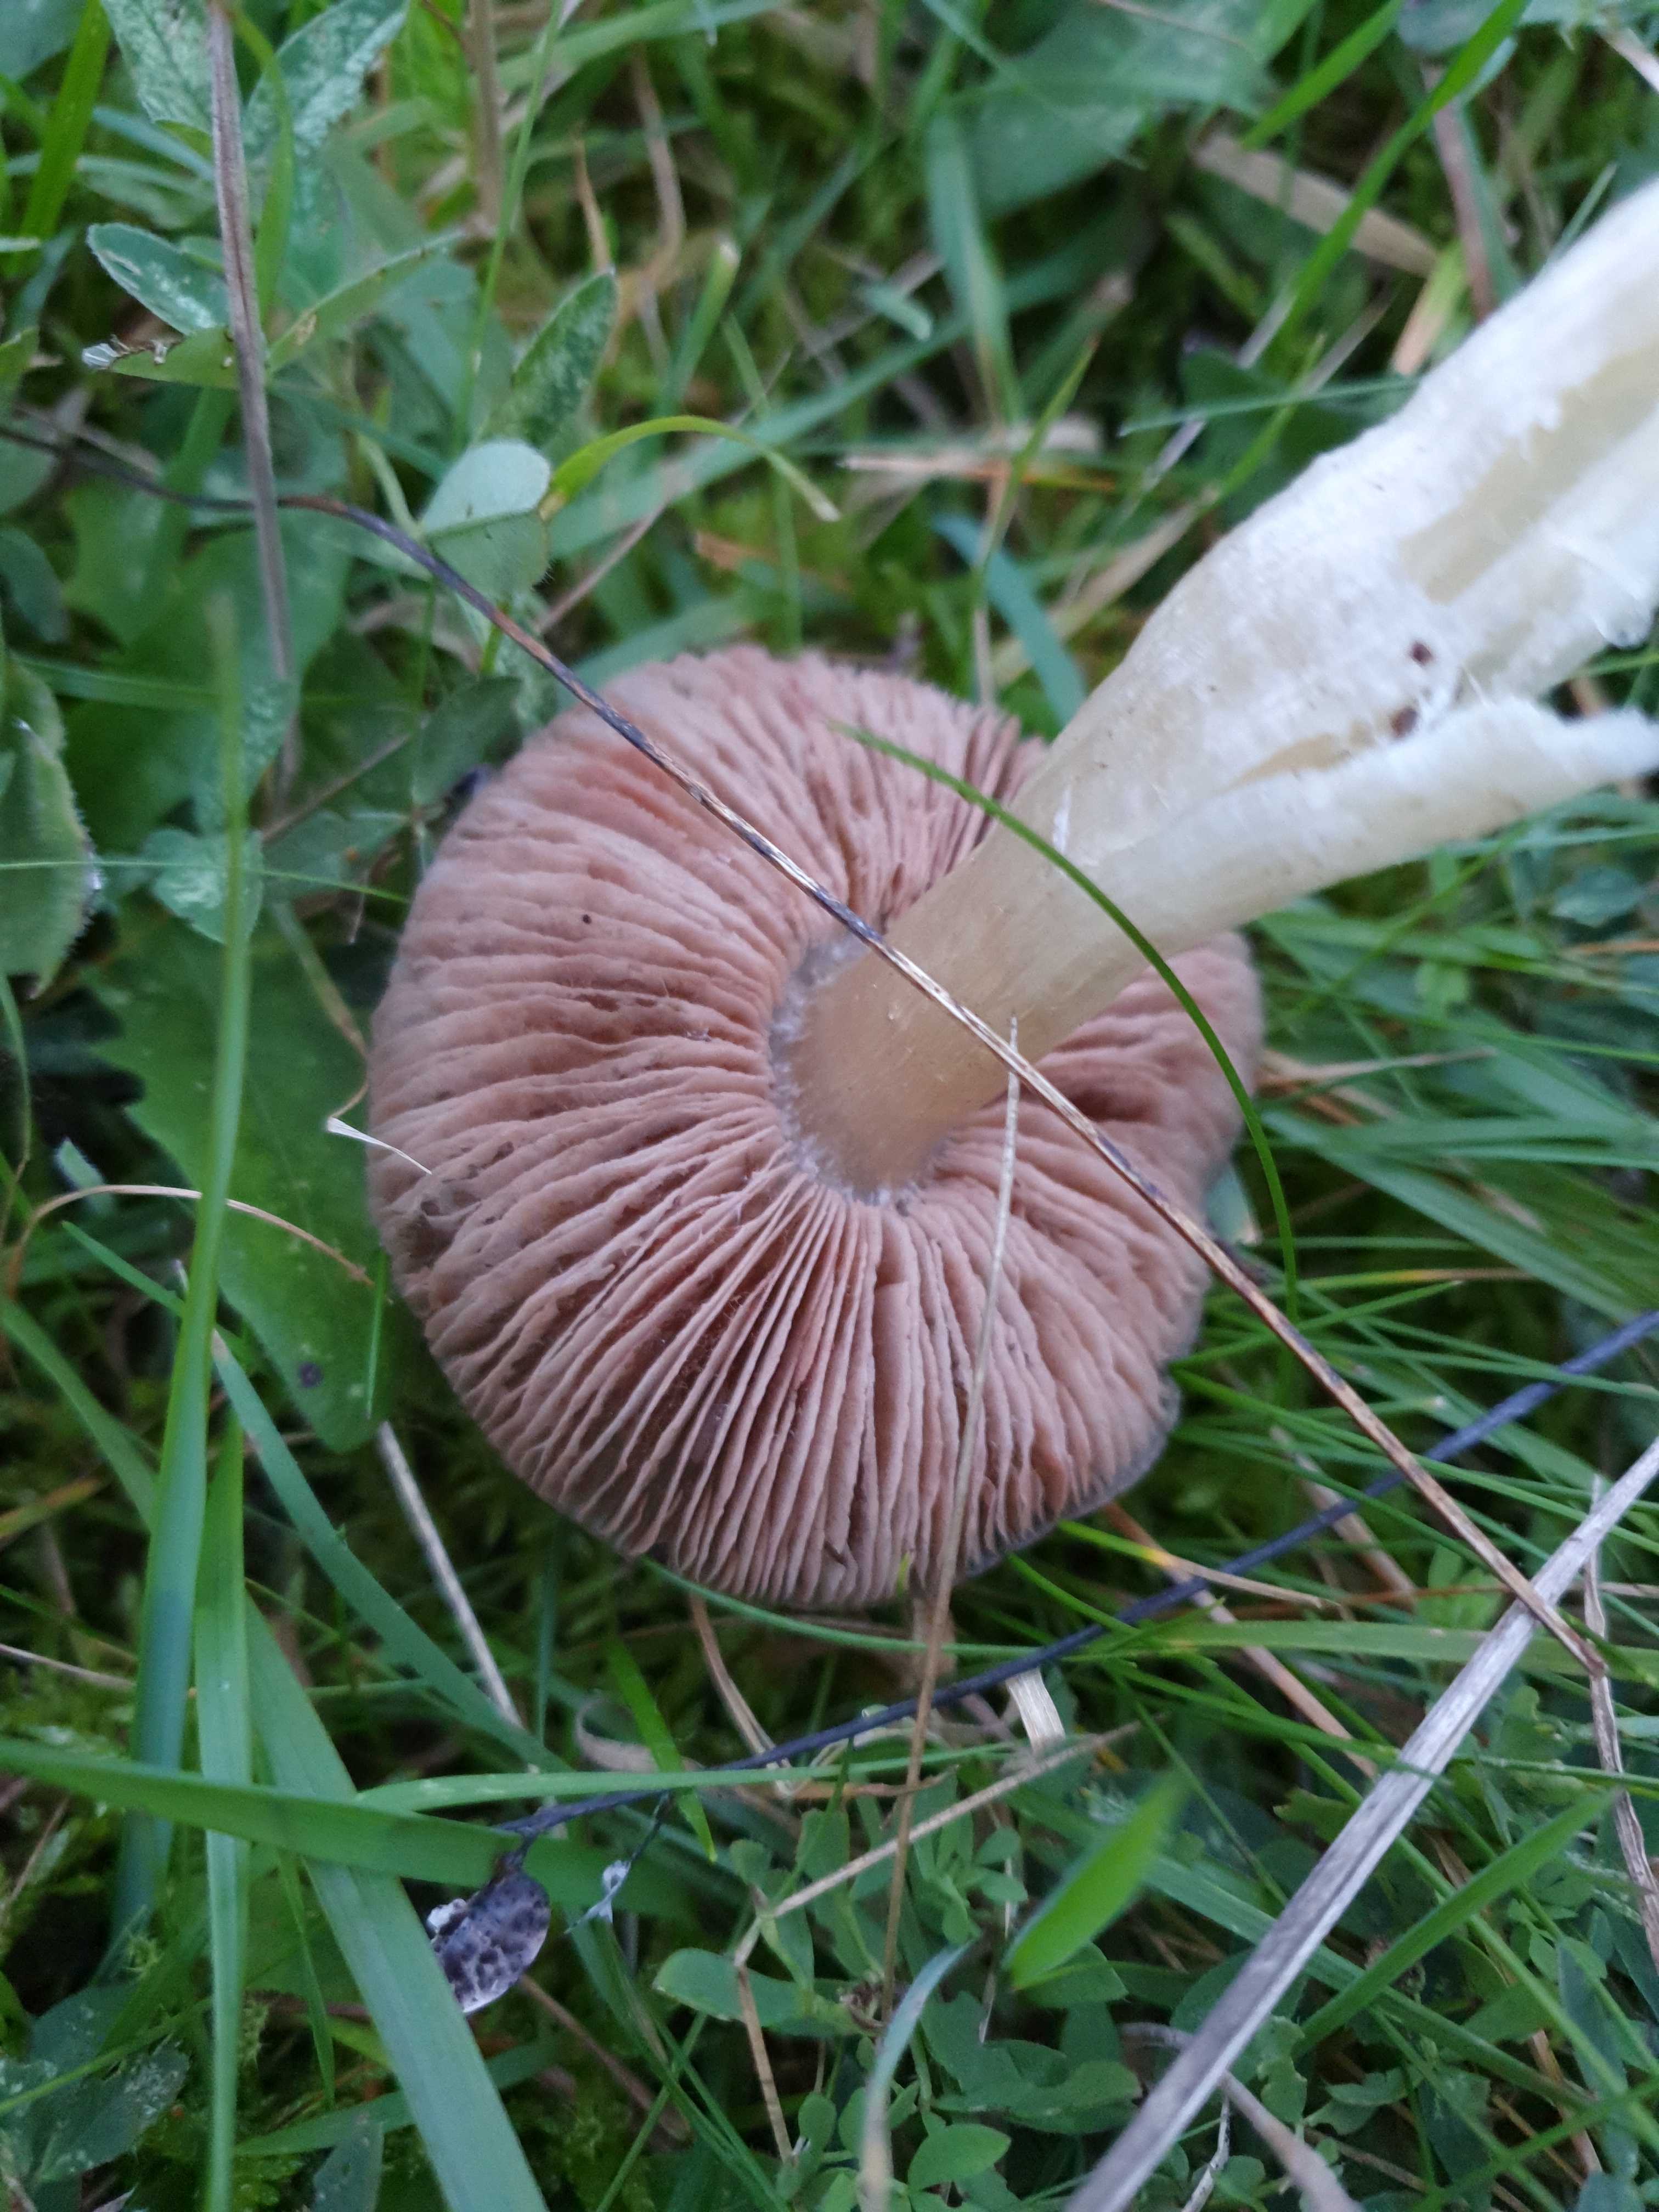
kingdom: Fungi
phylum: Basidiomycota
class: Agaricomycetes
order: Agaricales
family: Entolomataceae
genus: Entoloma
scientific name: Entoloma prunuloides
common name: mel-rødblad
